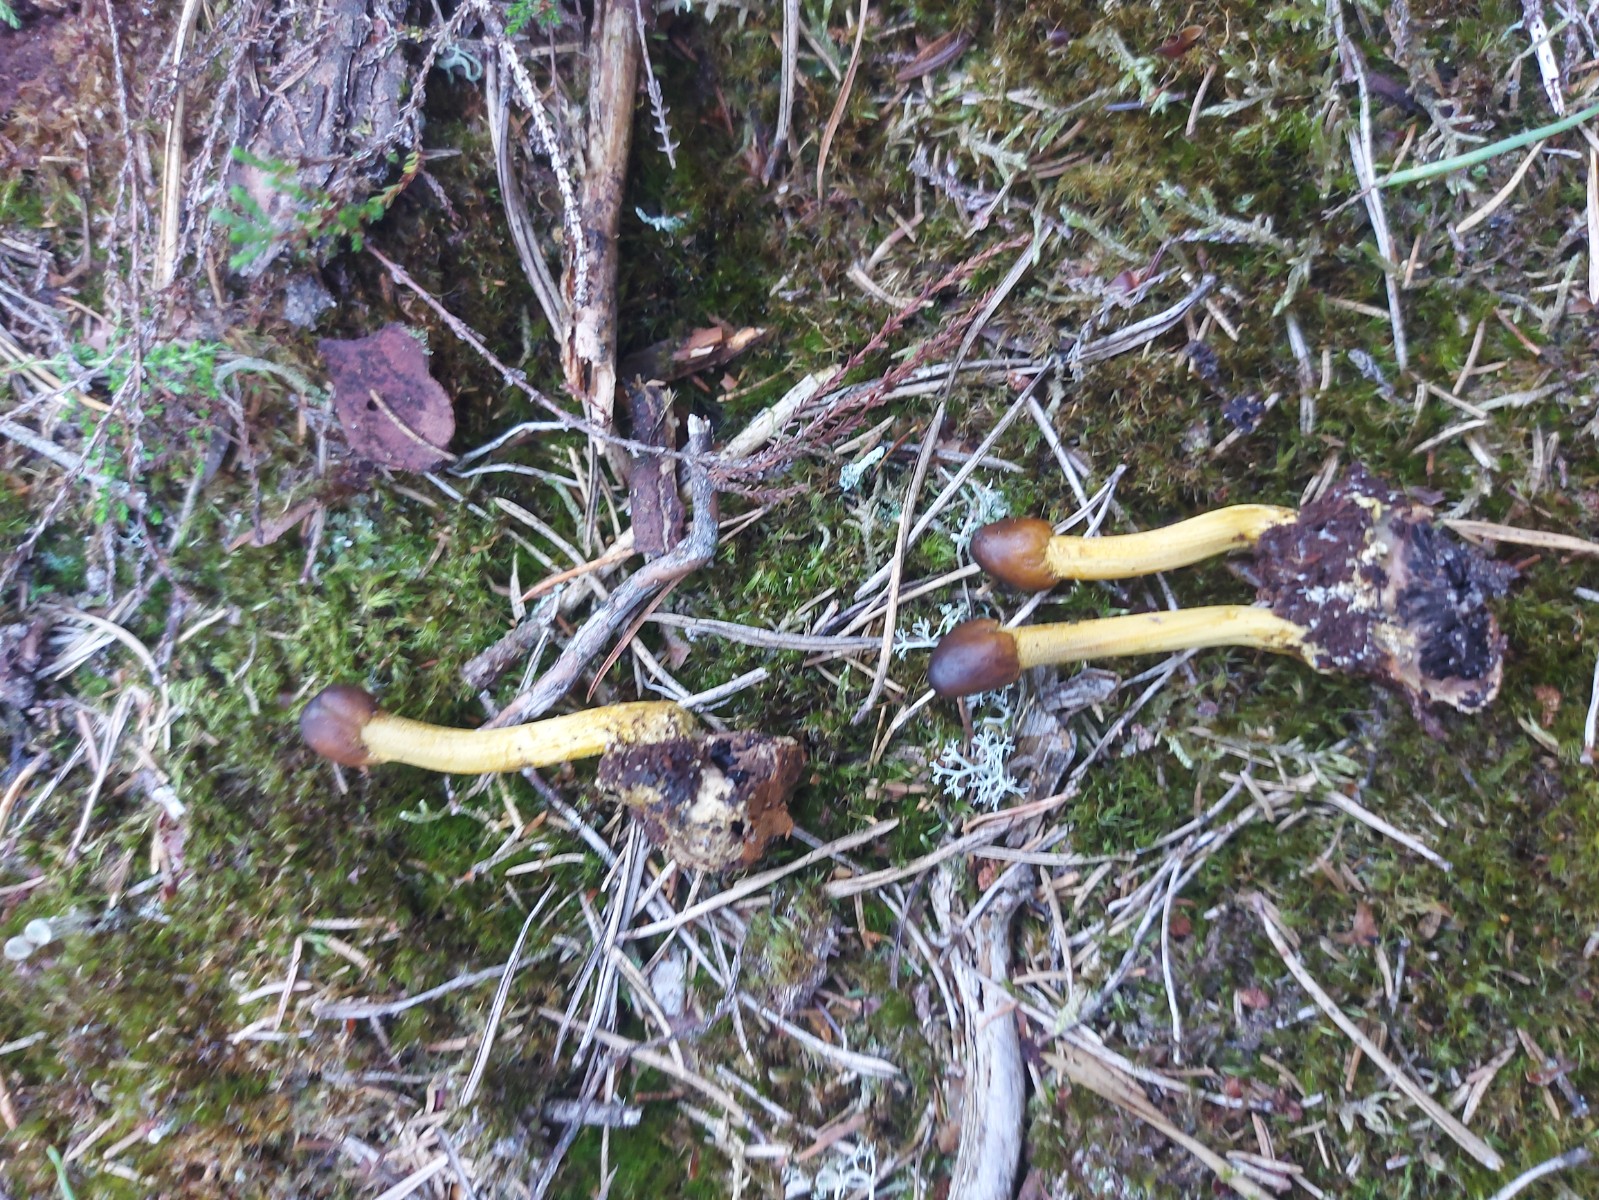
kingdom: Fungi
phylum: Ascomycota
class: Sordariomycetes
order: Hypocreales
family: Ophiocordycipitaceae
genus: Tolypocladium
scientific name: Tolypocladium
